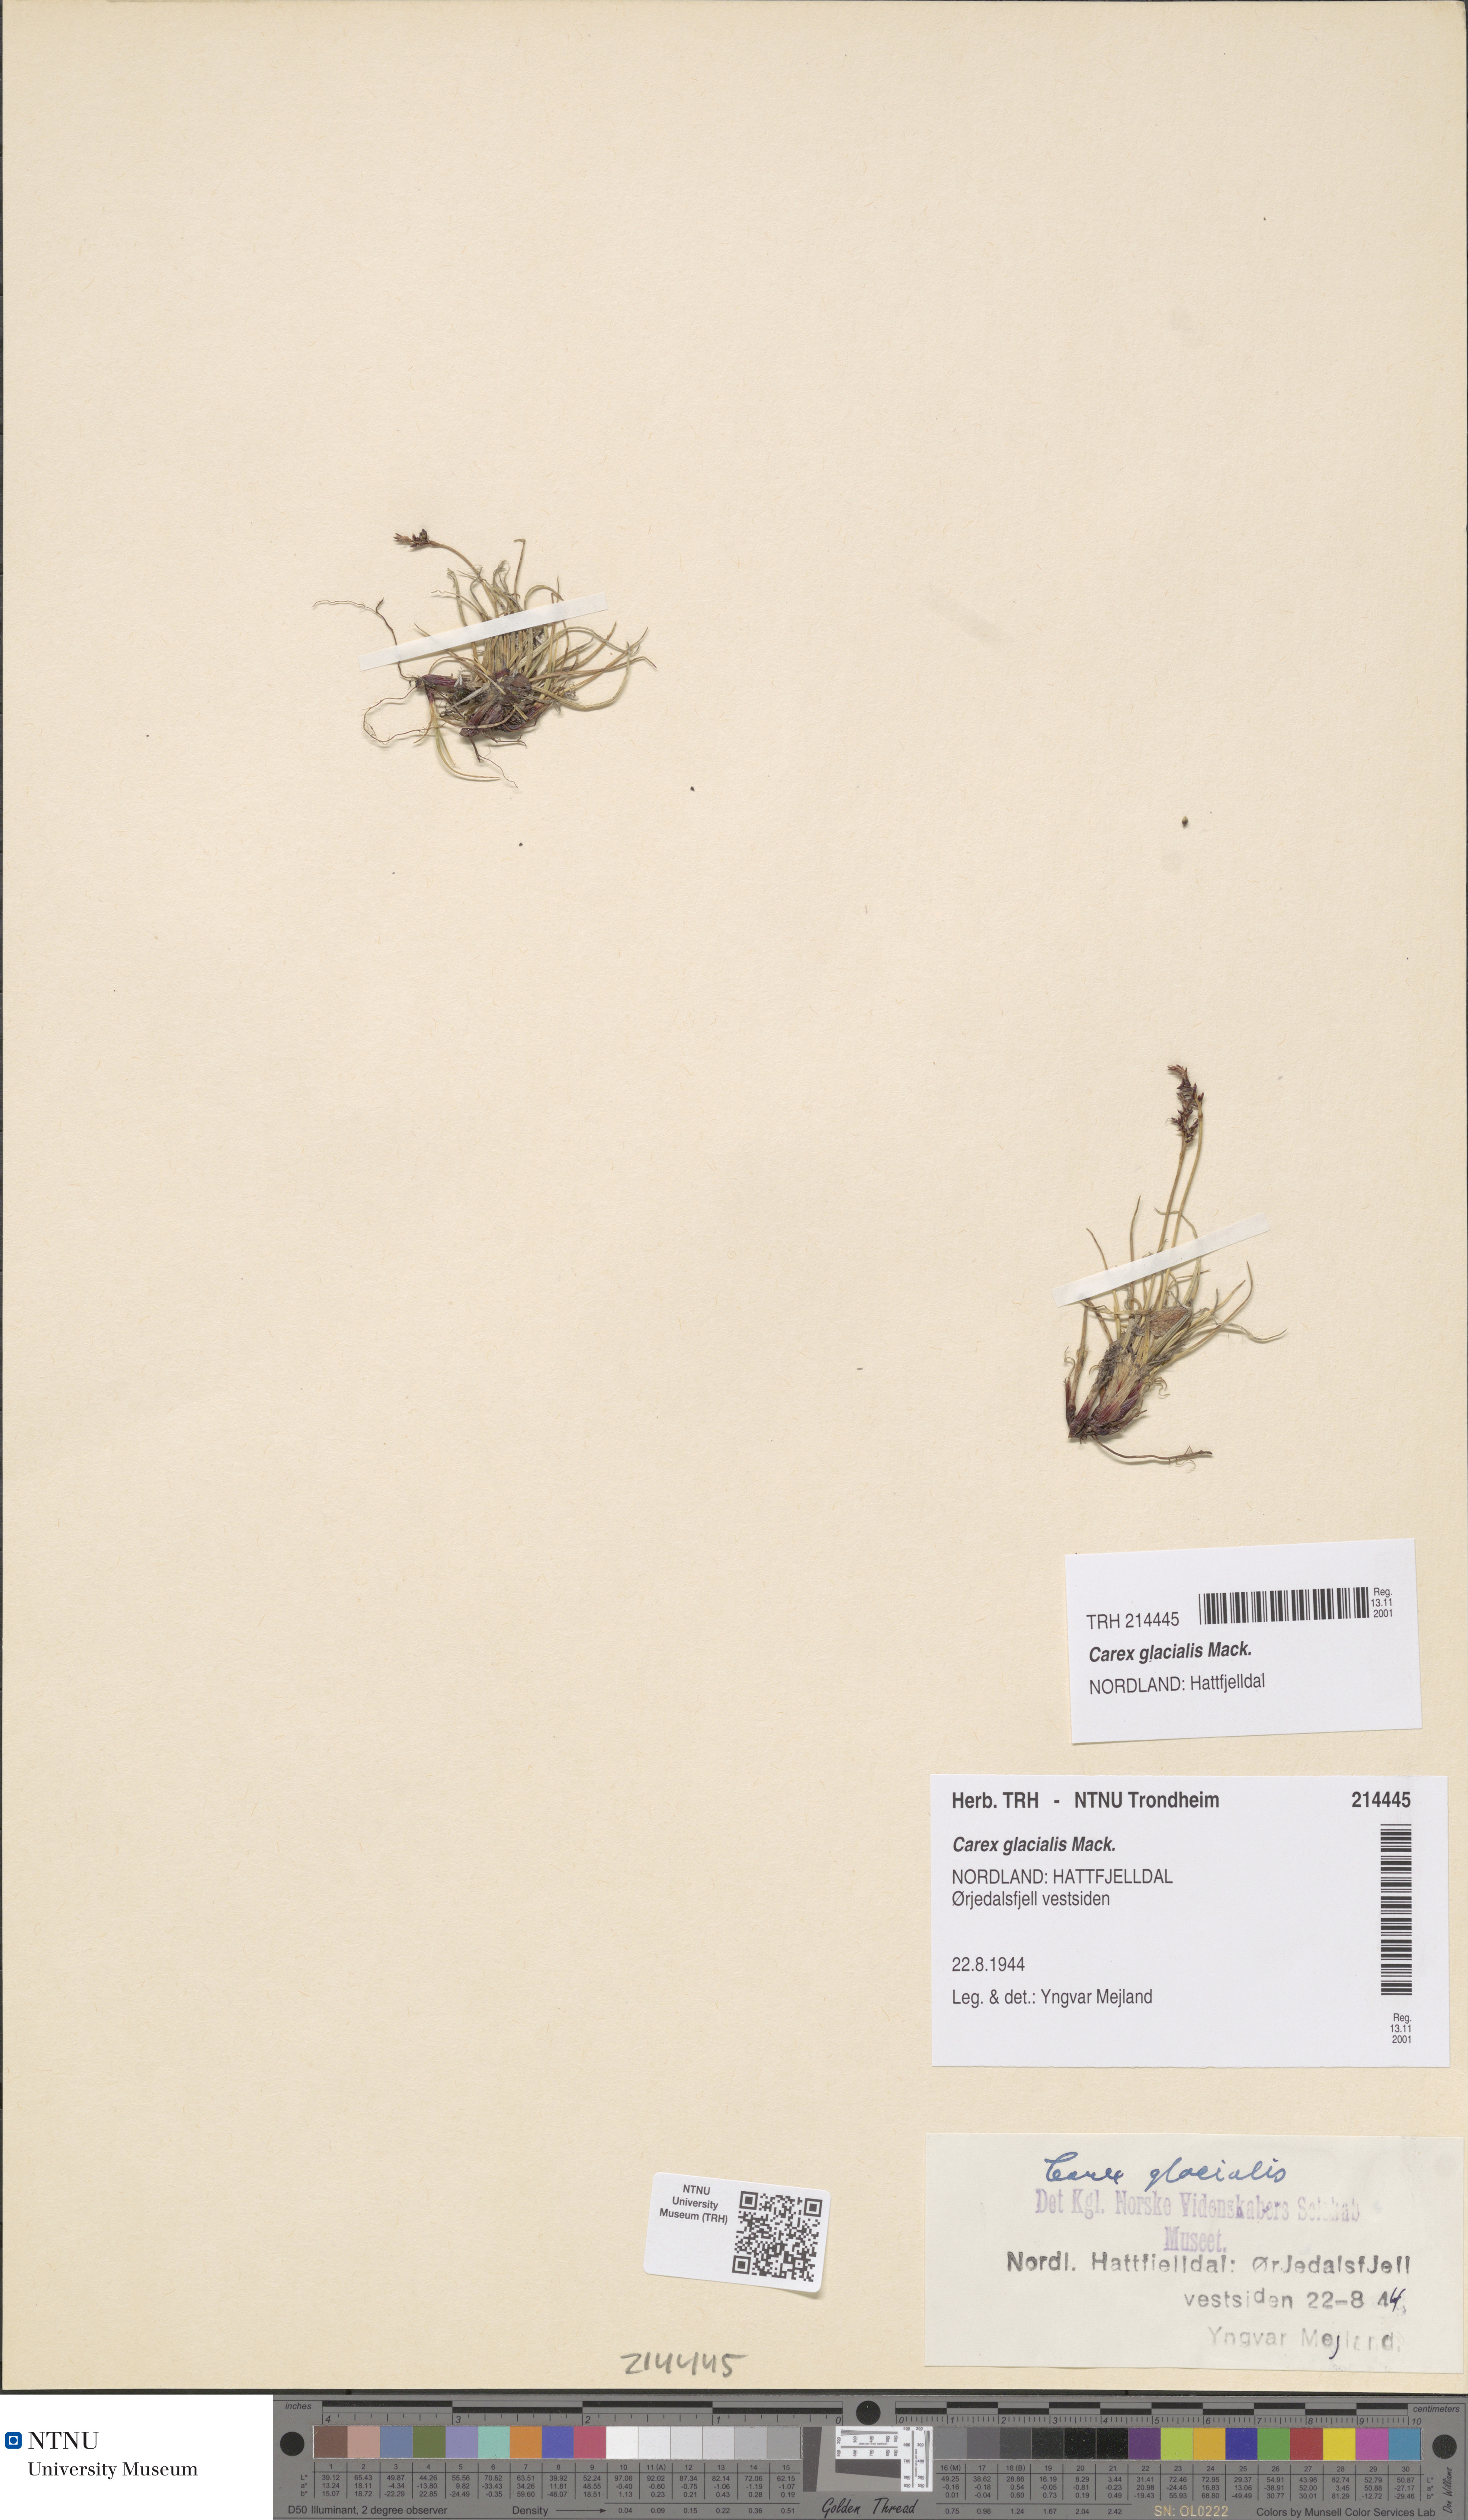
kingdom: Plantae
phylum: Tracheophyta
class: Liliopsida
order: Poales
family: Cyperaceae
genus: Carex
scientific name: Carex glacialis
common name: Newfoundland sedge
